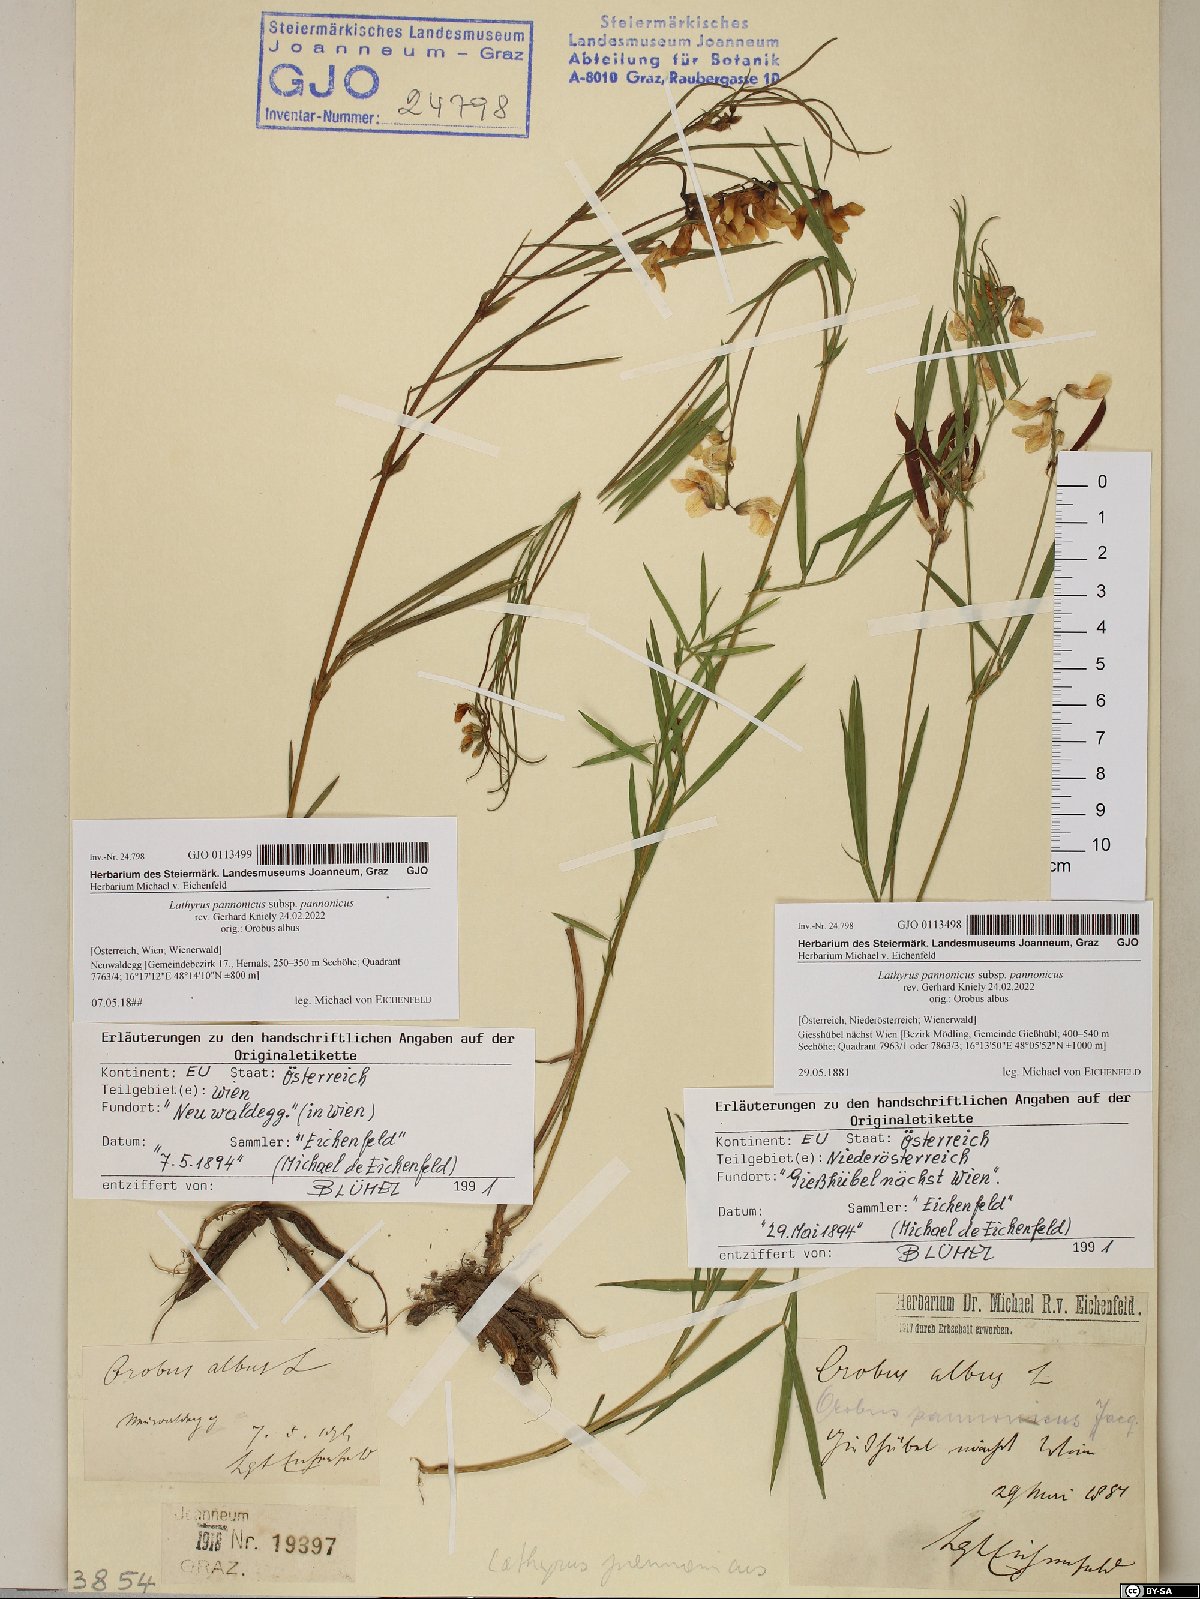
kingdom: Plantae
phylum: Tracheophyta
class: Magnoliopsida
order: Fabales
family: Fabaceae
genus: Lathyrus
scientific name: Lathyrus pannonicus
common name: Pea
